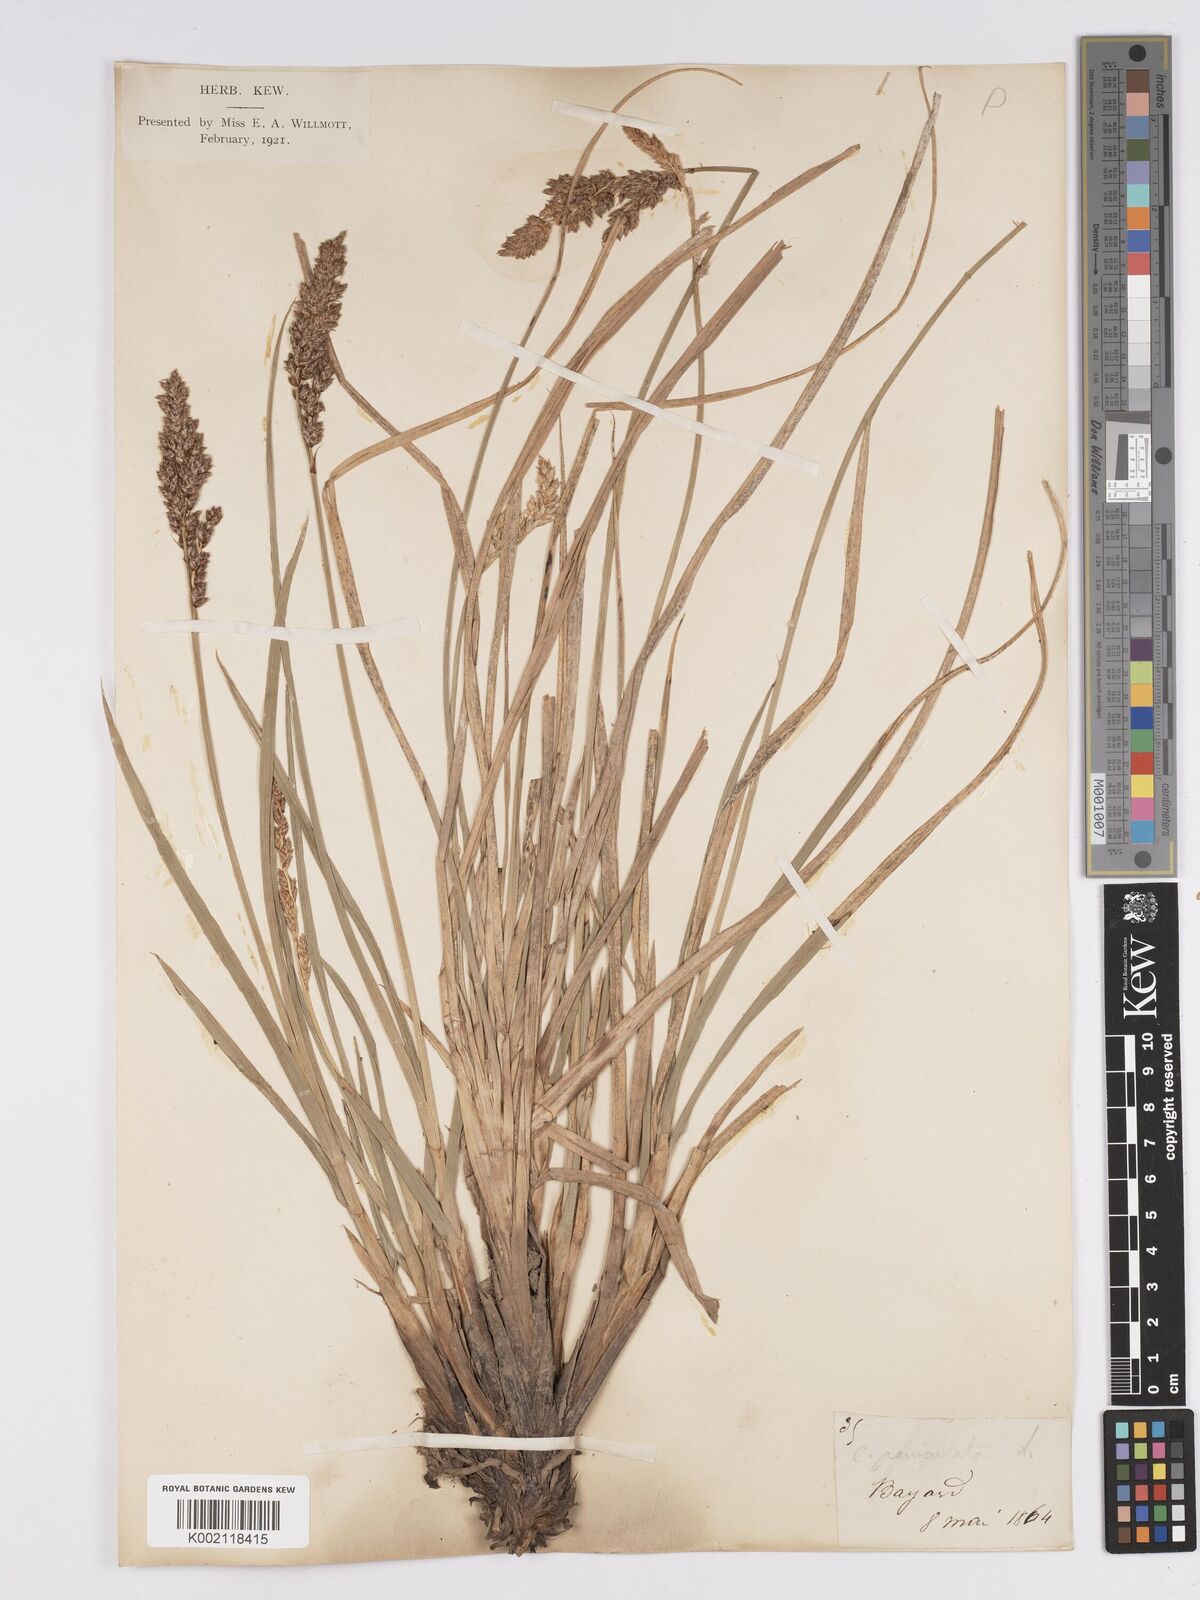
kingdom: Plantae
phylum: Tracheophyta
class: Liliopsida
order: Poales
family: Cyperaceae
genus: Carex
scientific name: Carex paniculata
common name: Greater tussock-sedge
